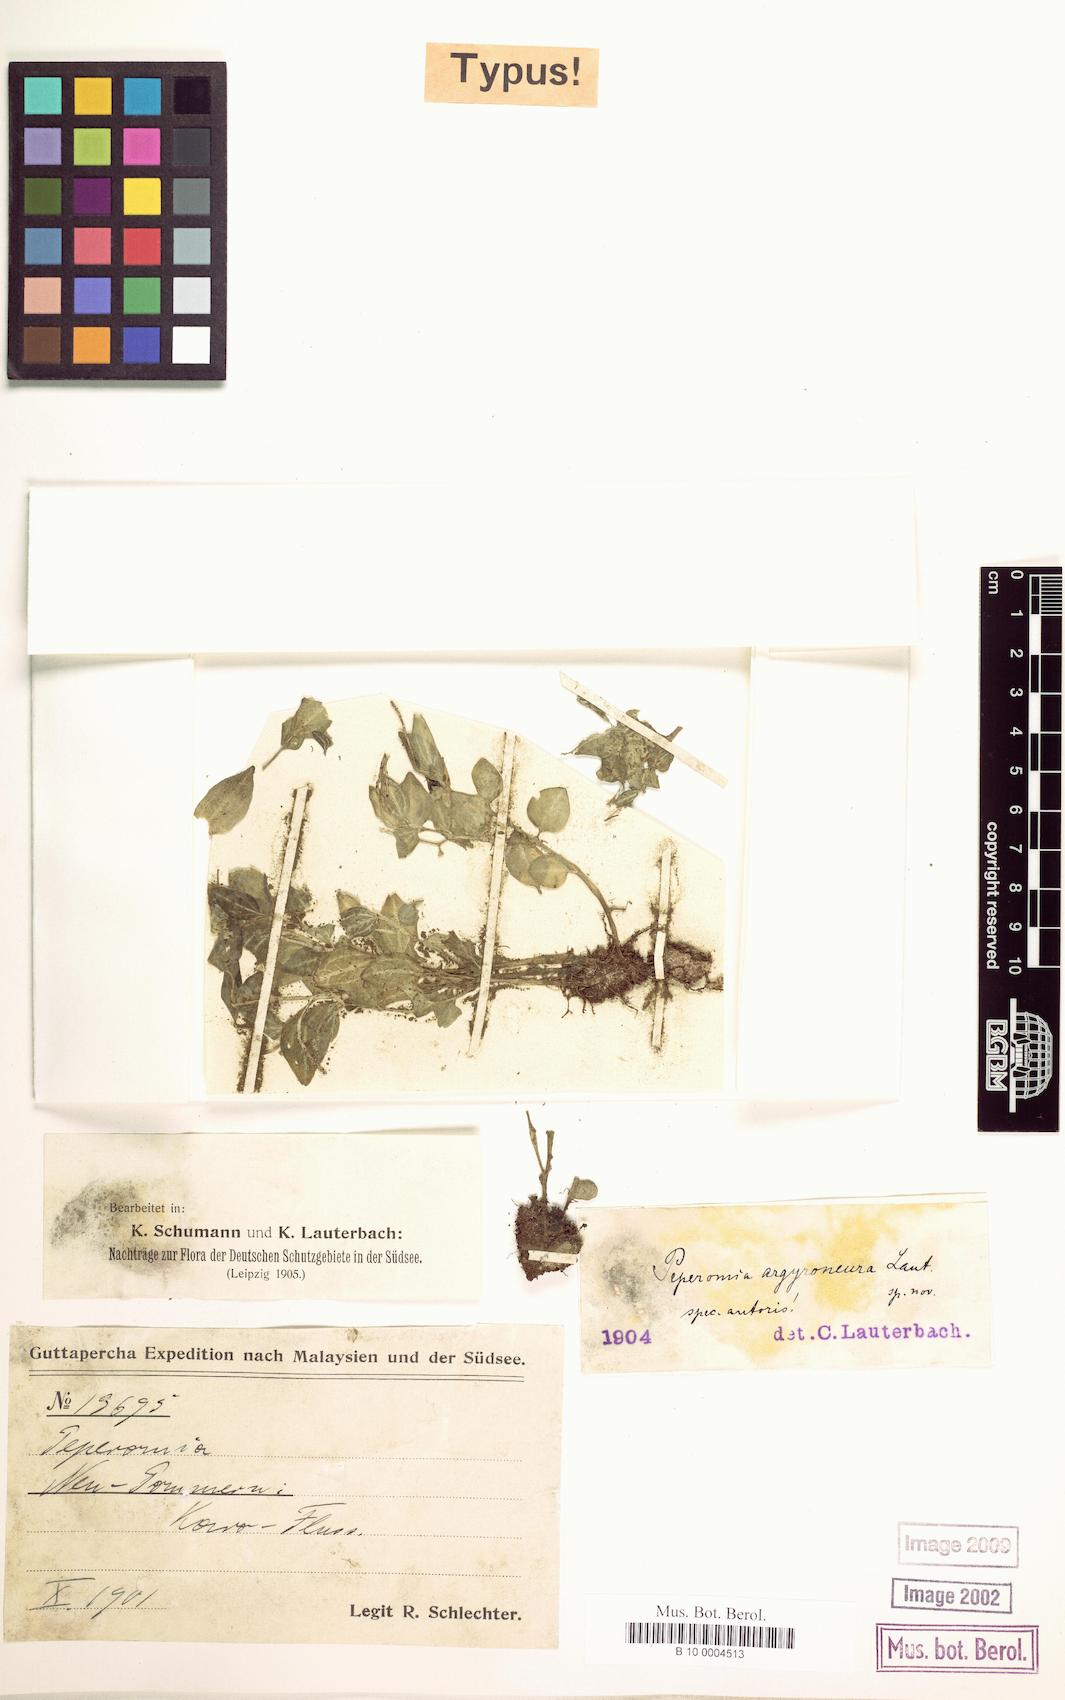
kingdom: Plantae
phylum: Tracheophyta
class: Magnoliopsida
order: Piperales
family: Piperaceae
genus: Peperomia
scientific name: Peperomia argyroneura
